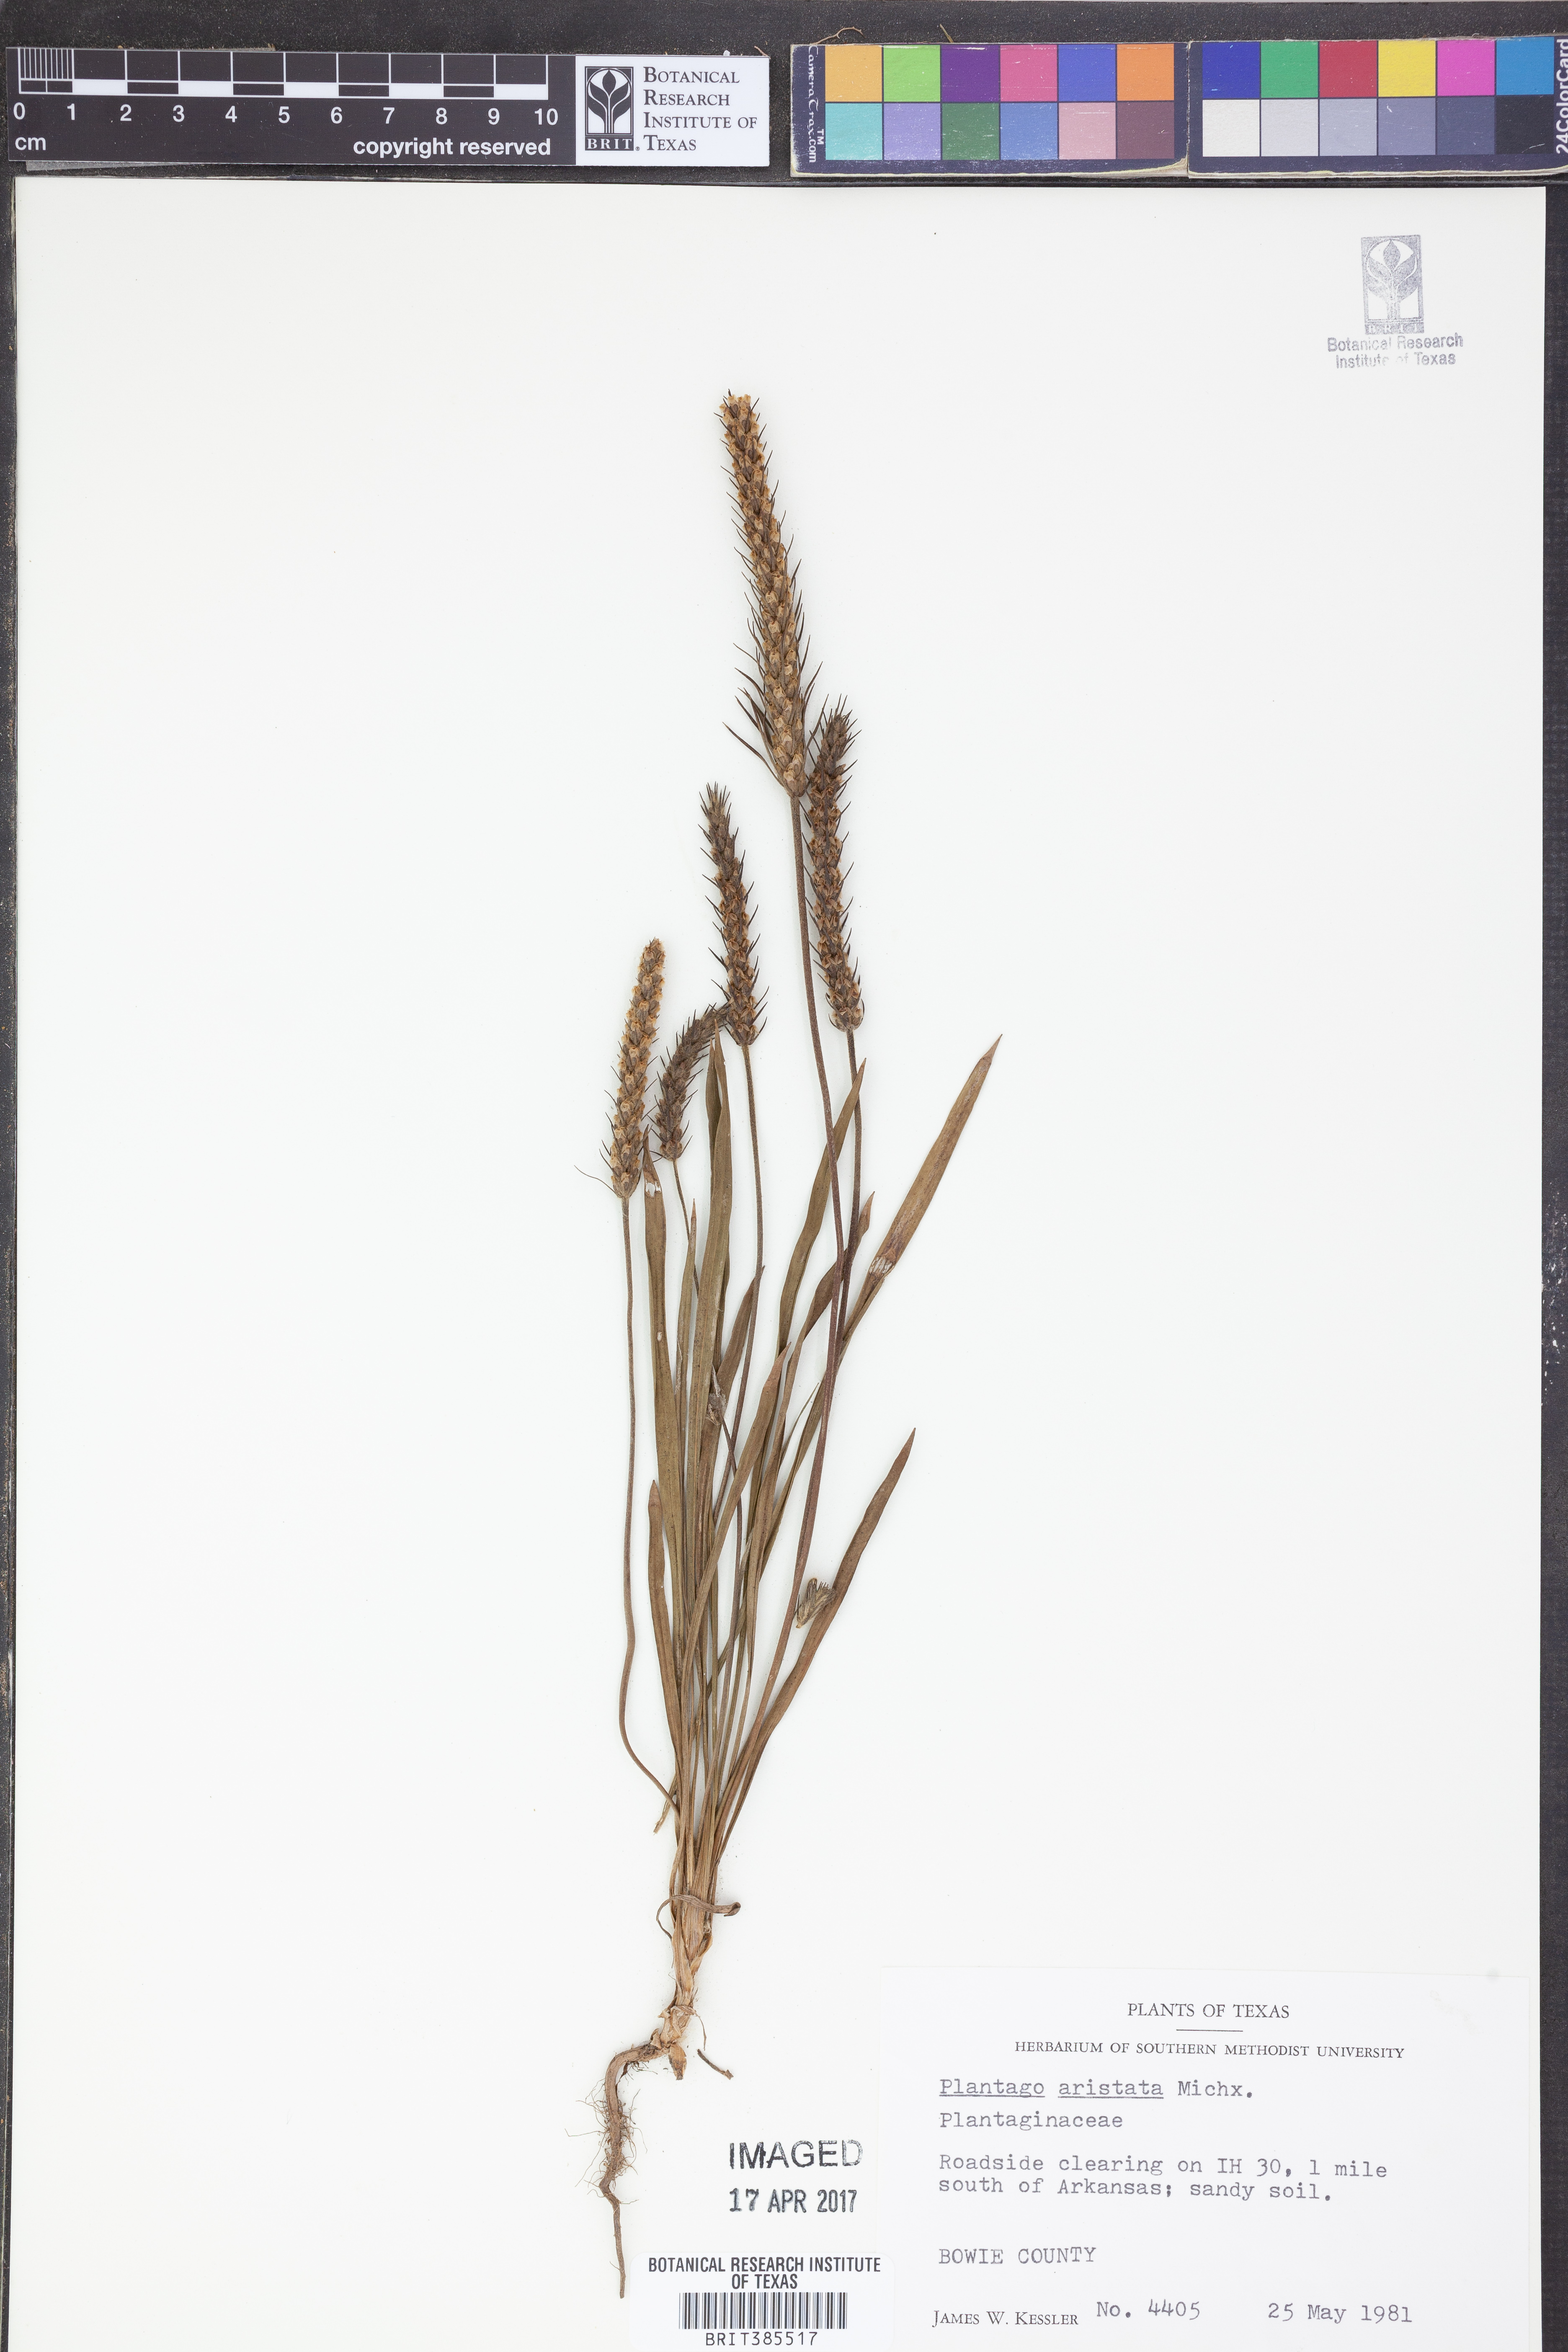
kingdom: Plantae
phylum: Tracheophyta
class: Magnoliopsida
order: Lamiales
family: Plantaginaceae
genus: Plantago
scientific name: Plantago aristata
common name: Bracted plantain
